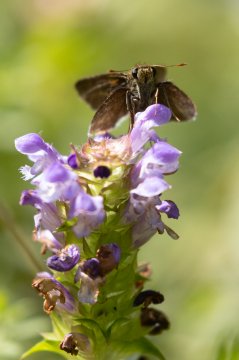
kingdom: Animalia
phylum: Arthropoda
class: Insecta
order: Lepidoptera
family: Hesperiidae
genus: Euphyes
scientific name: Euphyes vestris
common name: Dun Skipper
